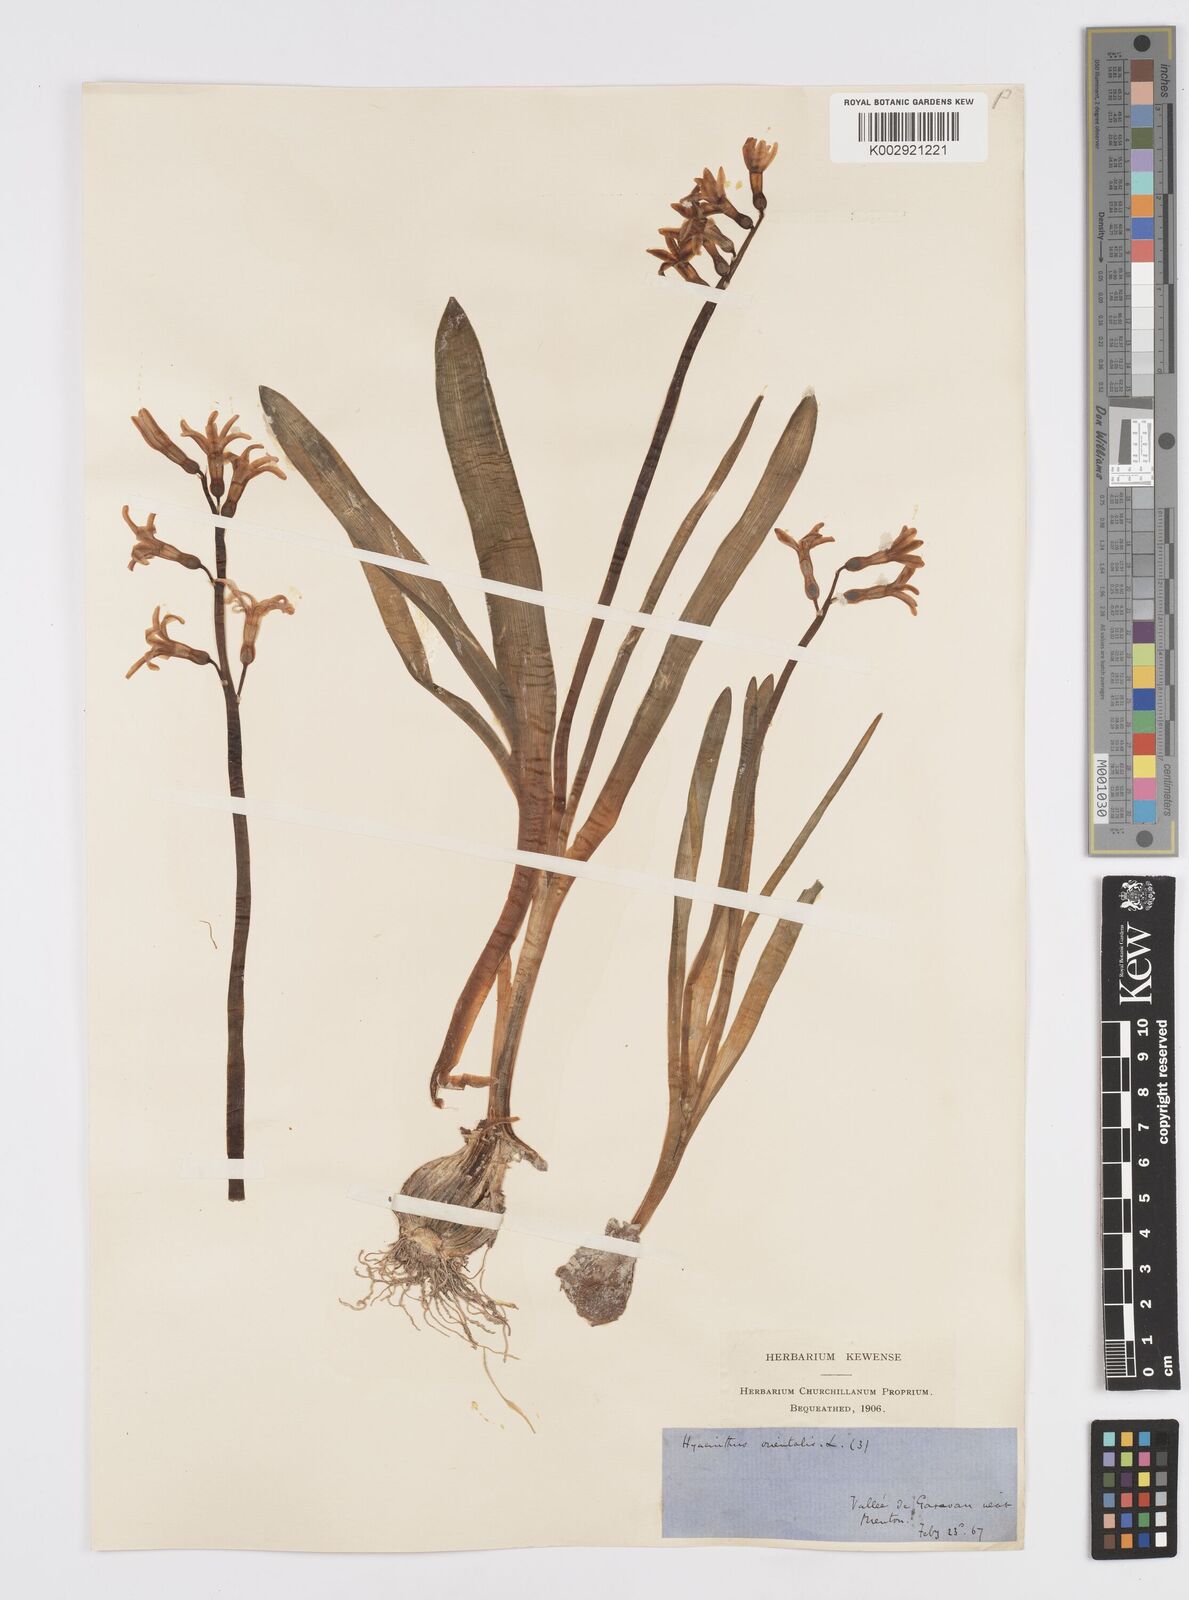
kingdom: Plantae
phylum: Tracheophyta
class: Liliopsida
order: Asparagales
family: Asparagaceae
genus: Hyacinthus
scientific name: Hyacinthus orientalis
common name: Hyacinth
